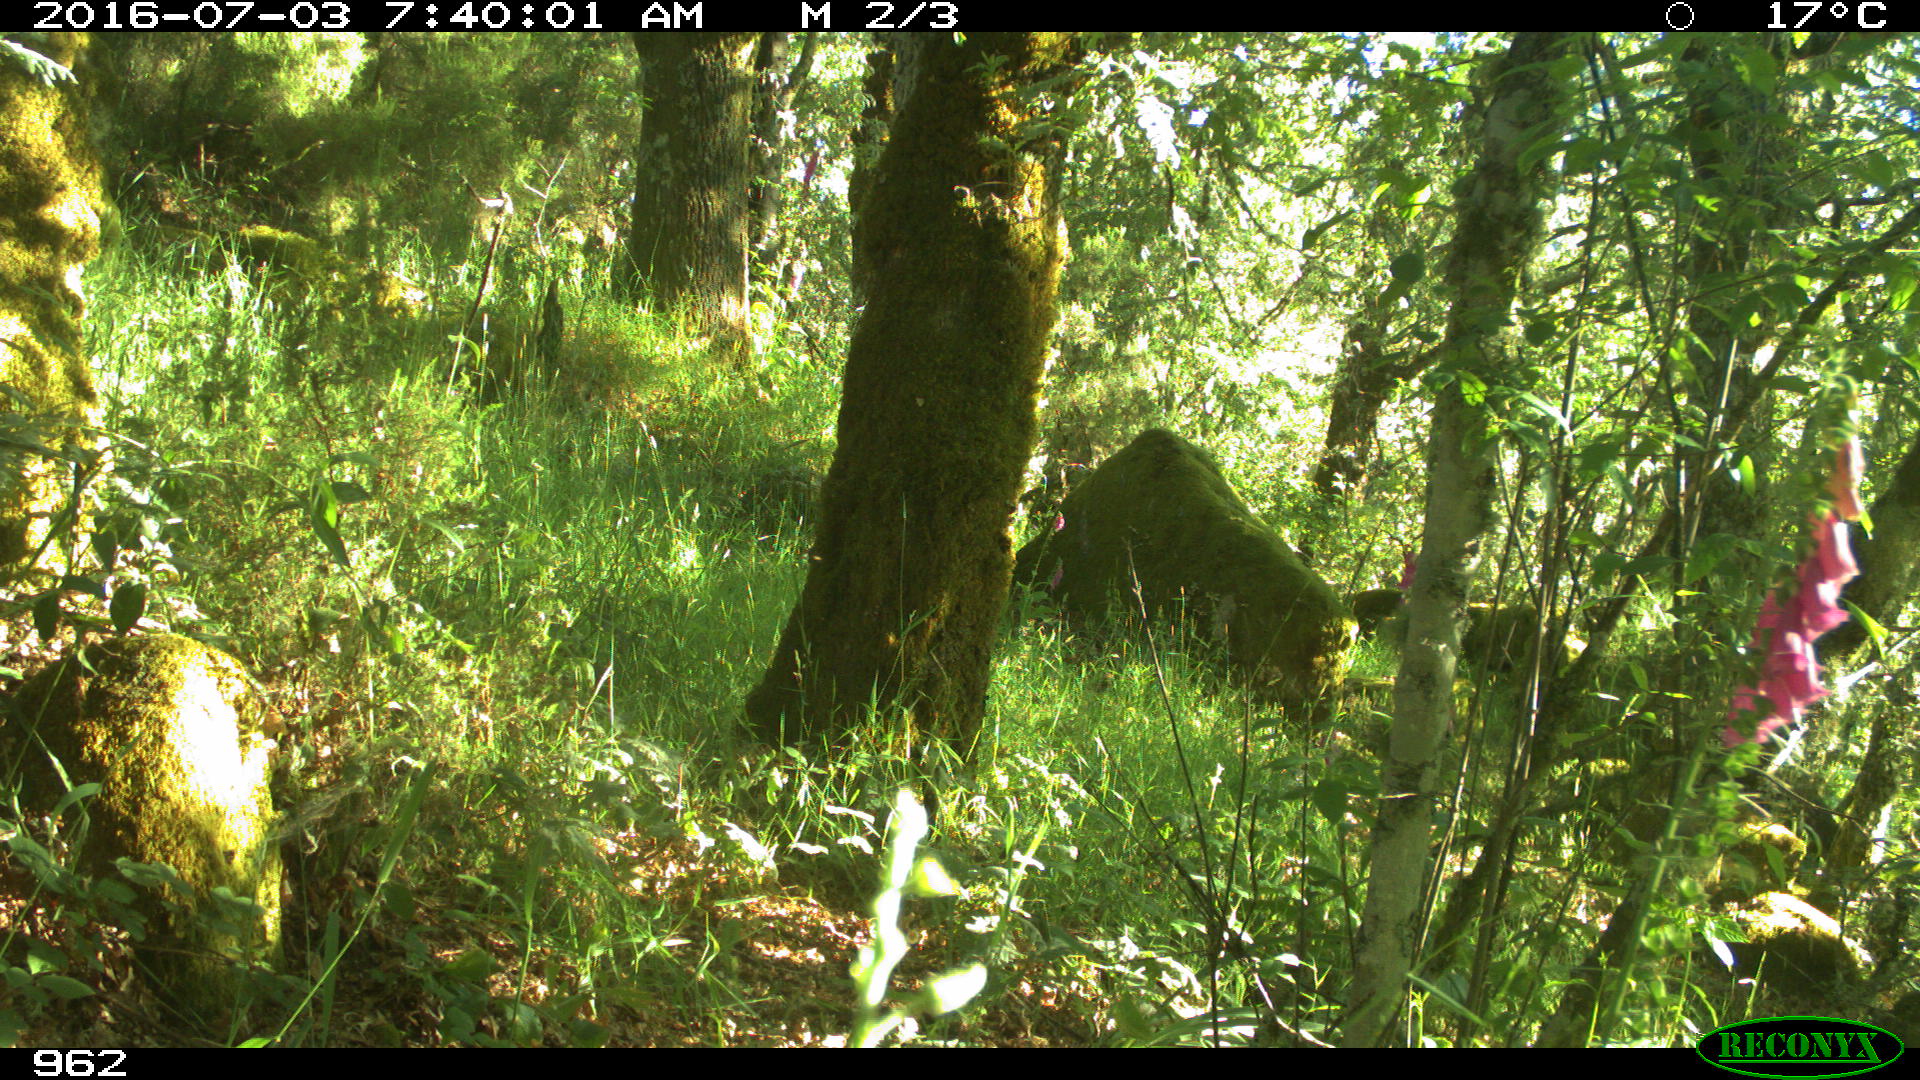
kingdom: Animalia
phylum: Chordata
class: Mammalia
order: Carnivora
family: Canidae
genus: Canis
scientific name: Canis lupus
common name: Gray wolf
